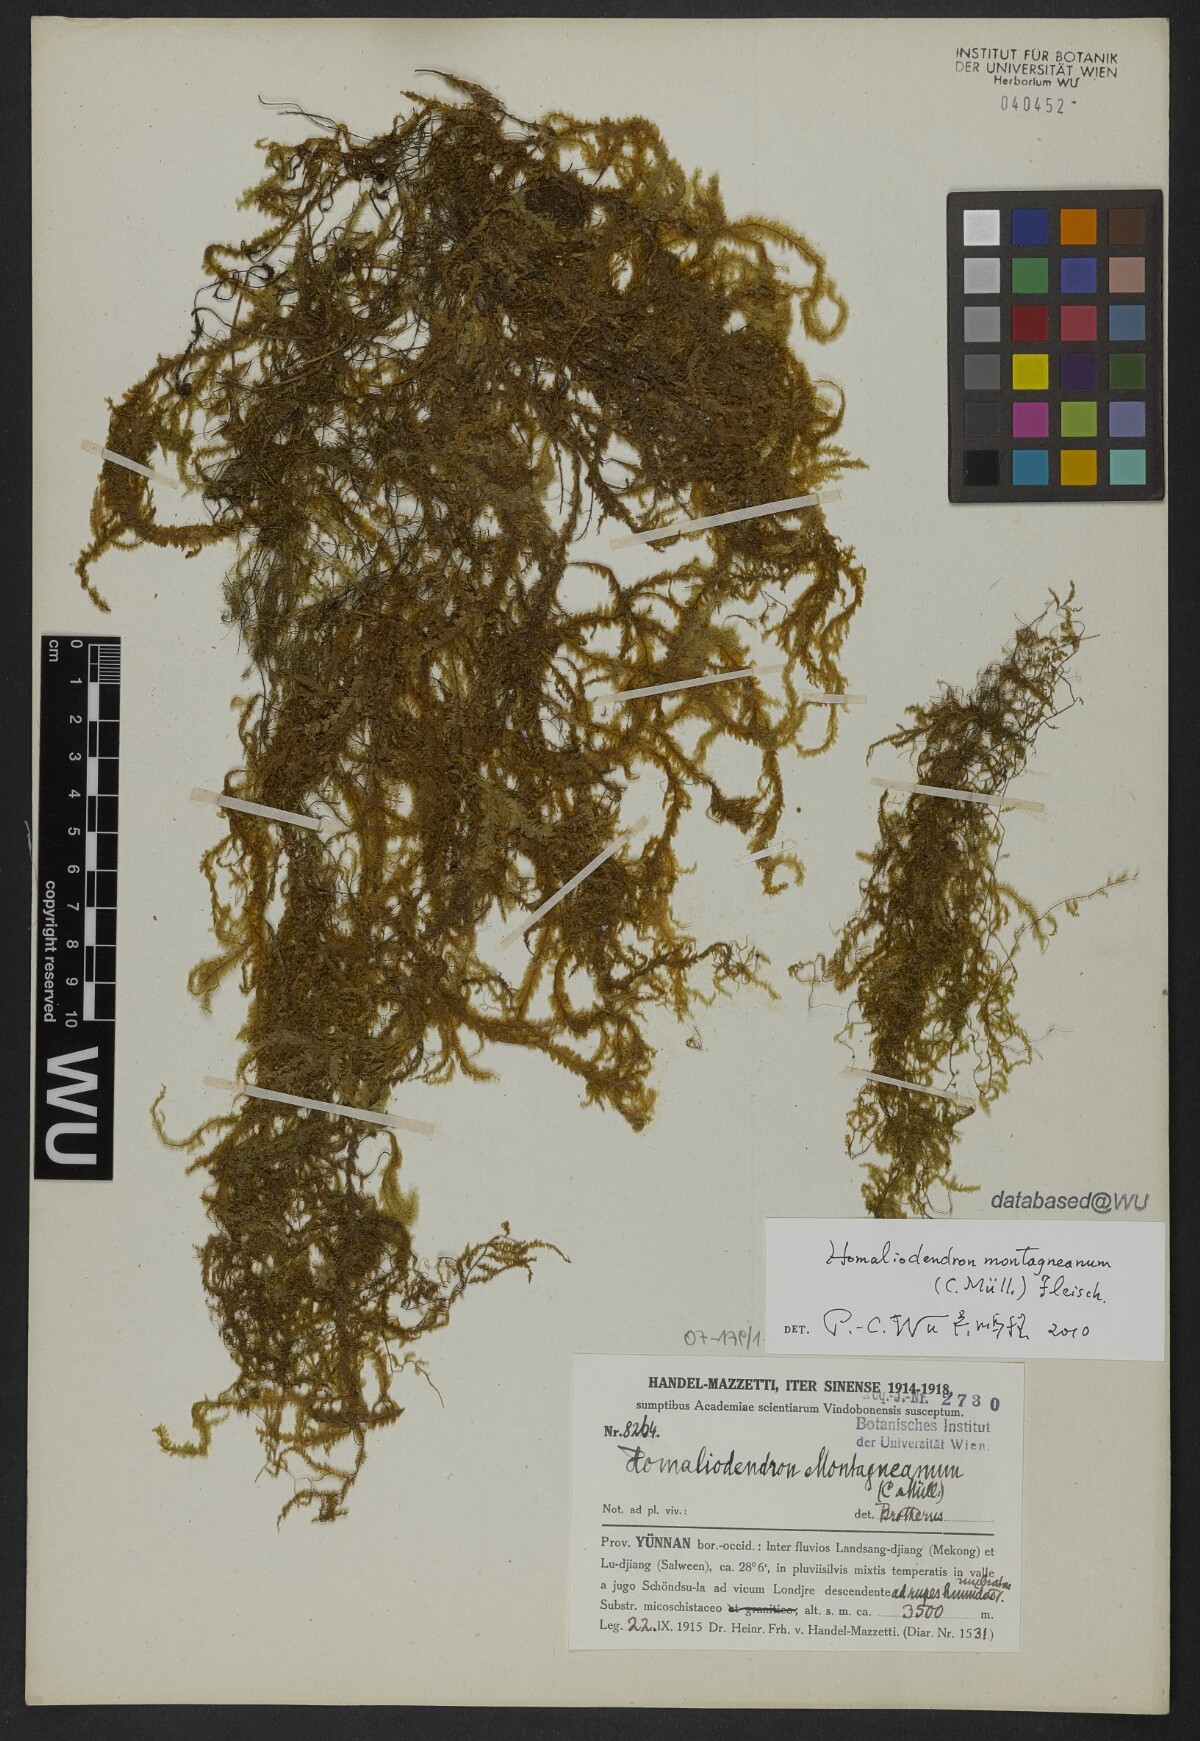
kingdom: Plantae
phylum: Bryophyta
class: Bryopsida
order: Hypnales
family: Neckeraceae
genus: Homaliodendron
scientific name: Homaliodendron montagneanum
